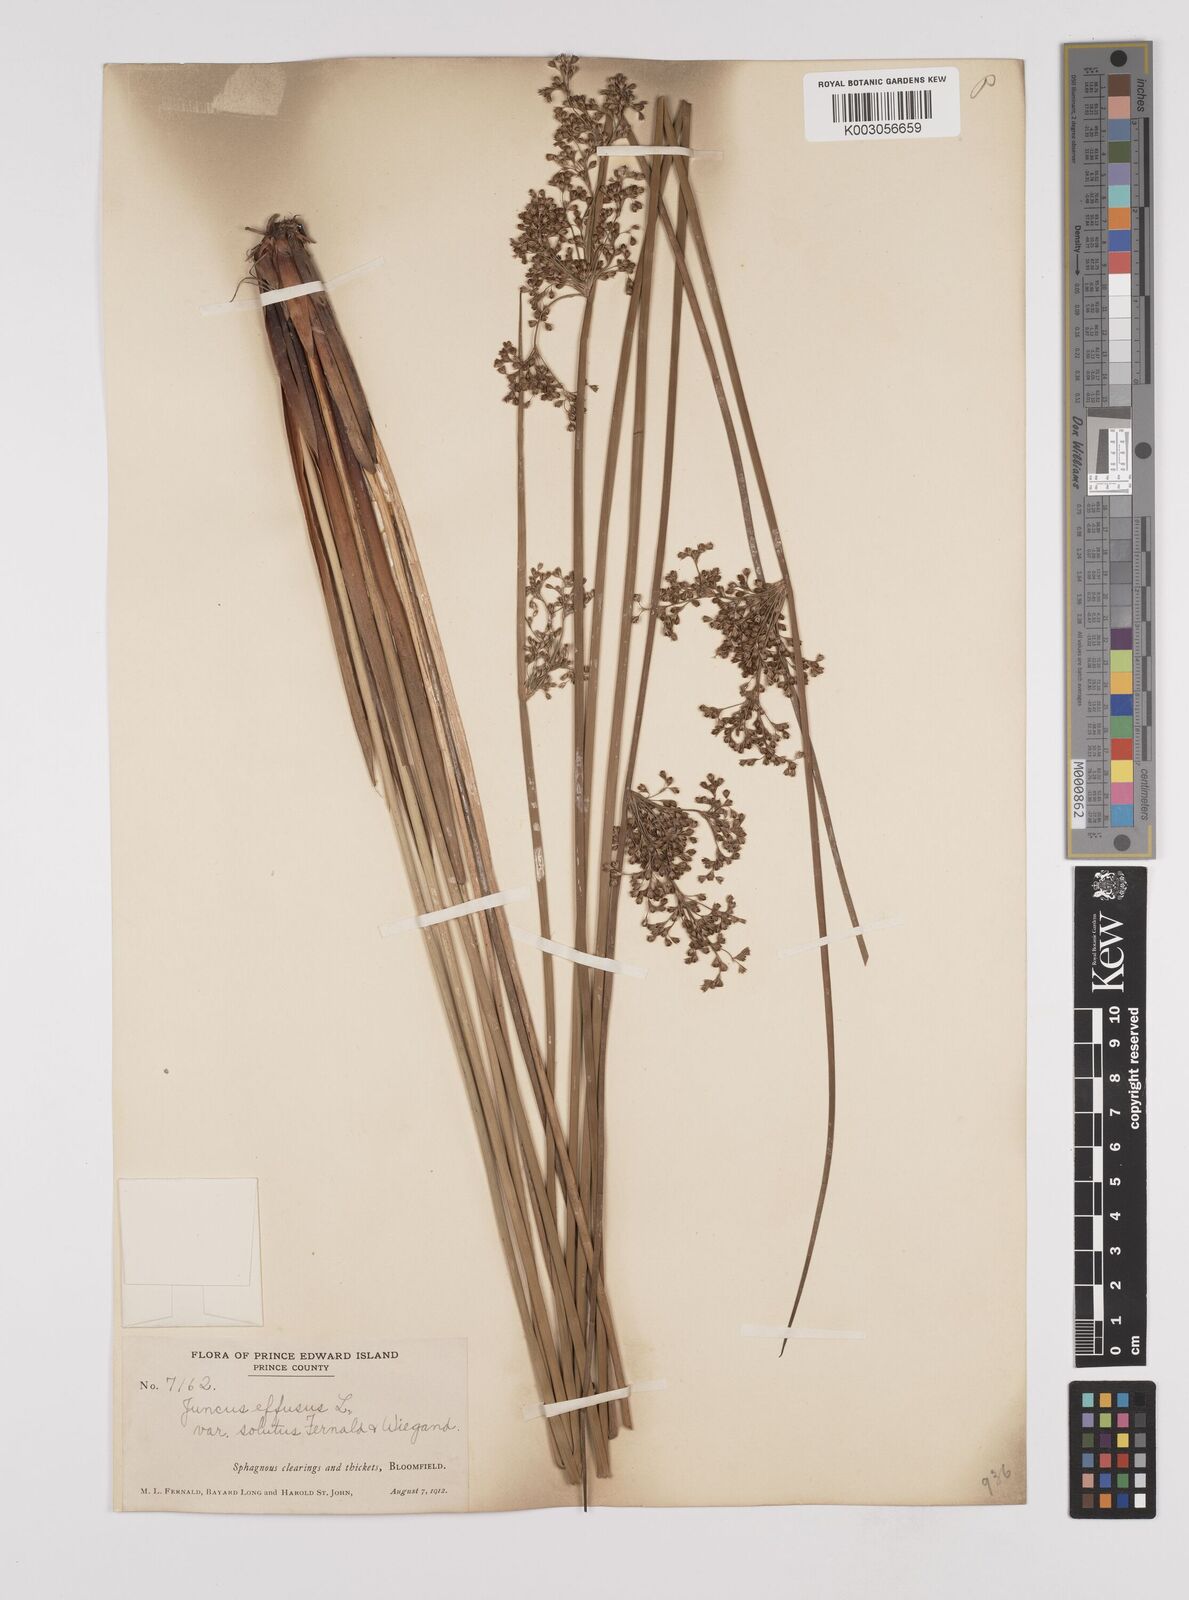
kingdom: Plantae
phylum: Tracheophyta
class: Liliopsida
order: Poales
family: Juncaceae
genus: Juncus
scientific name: Juncus effusus
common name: Soft rush
